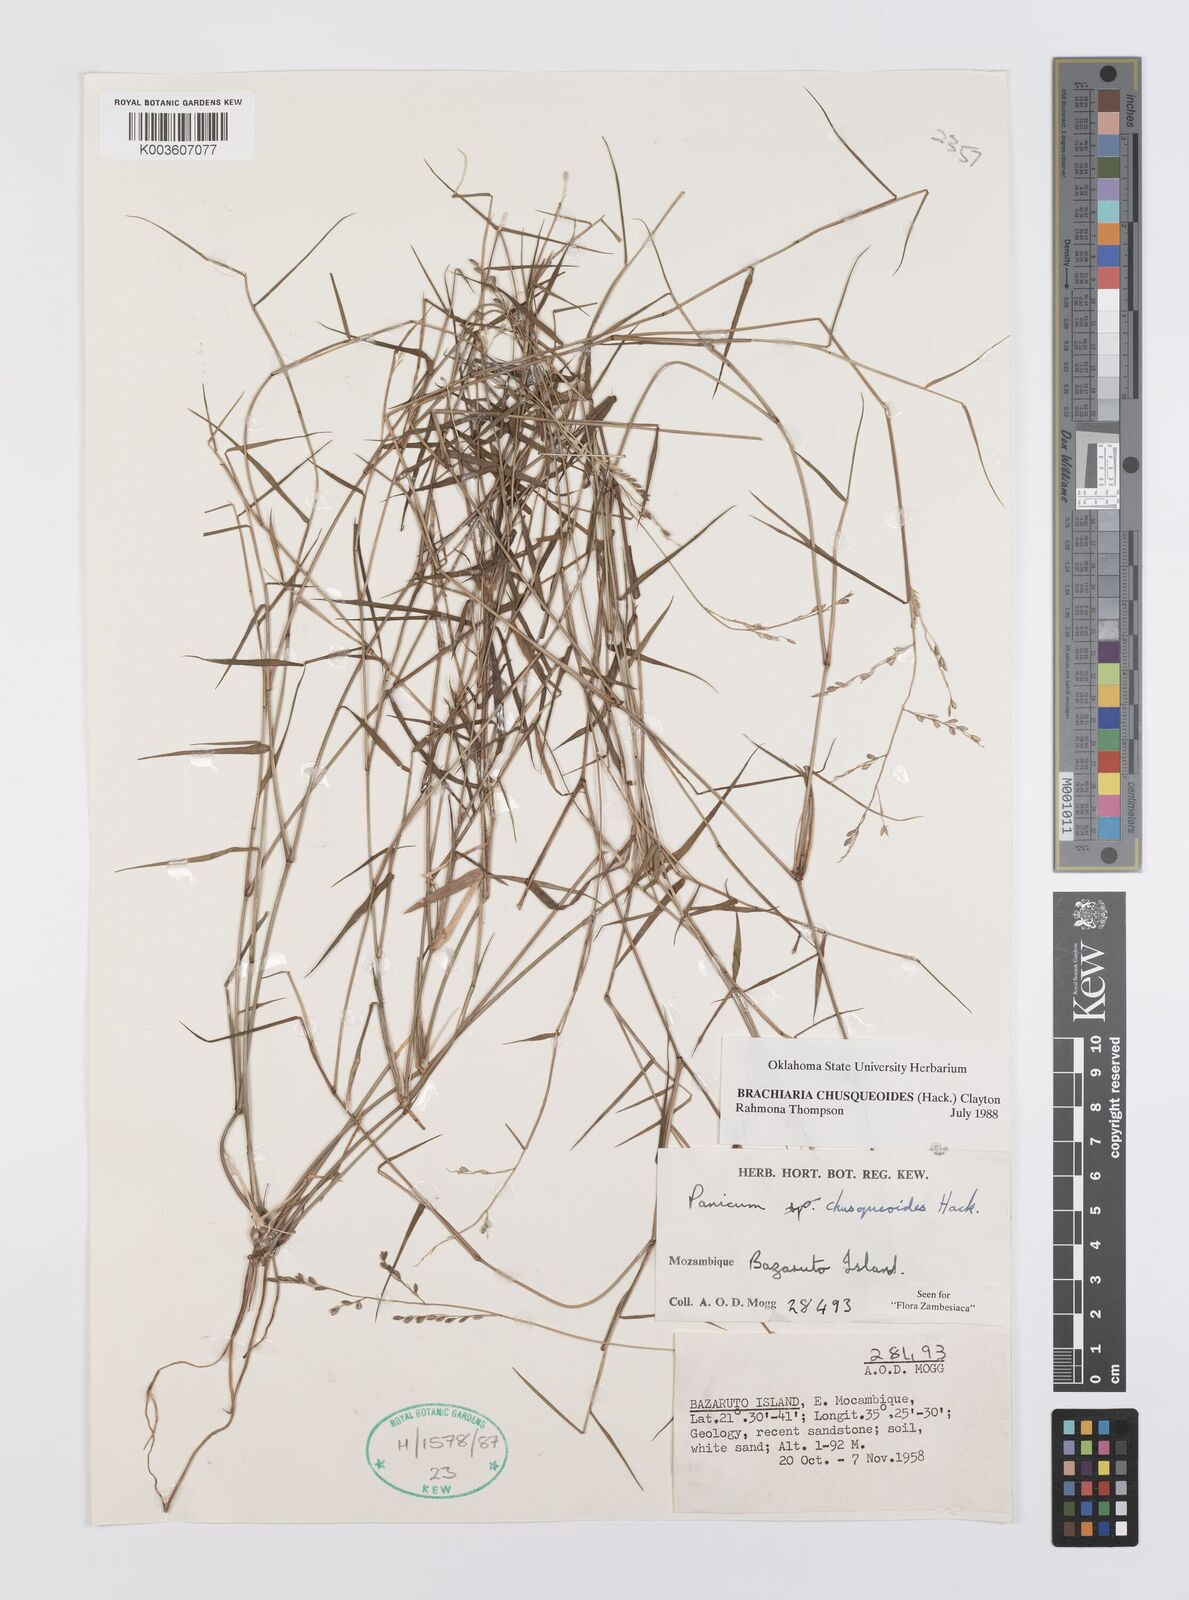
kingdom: Plantae
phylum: Tracheophyta
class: Liliopsida
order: Poales
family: Poaceae
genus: Urochloa
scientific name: Urochloa chusqueoides
